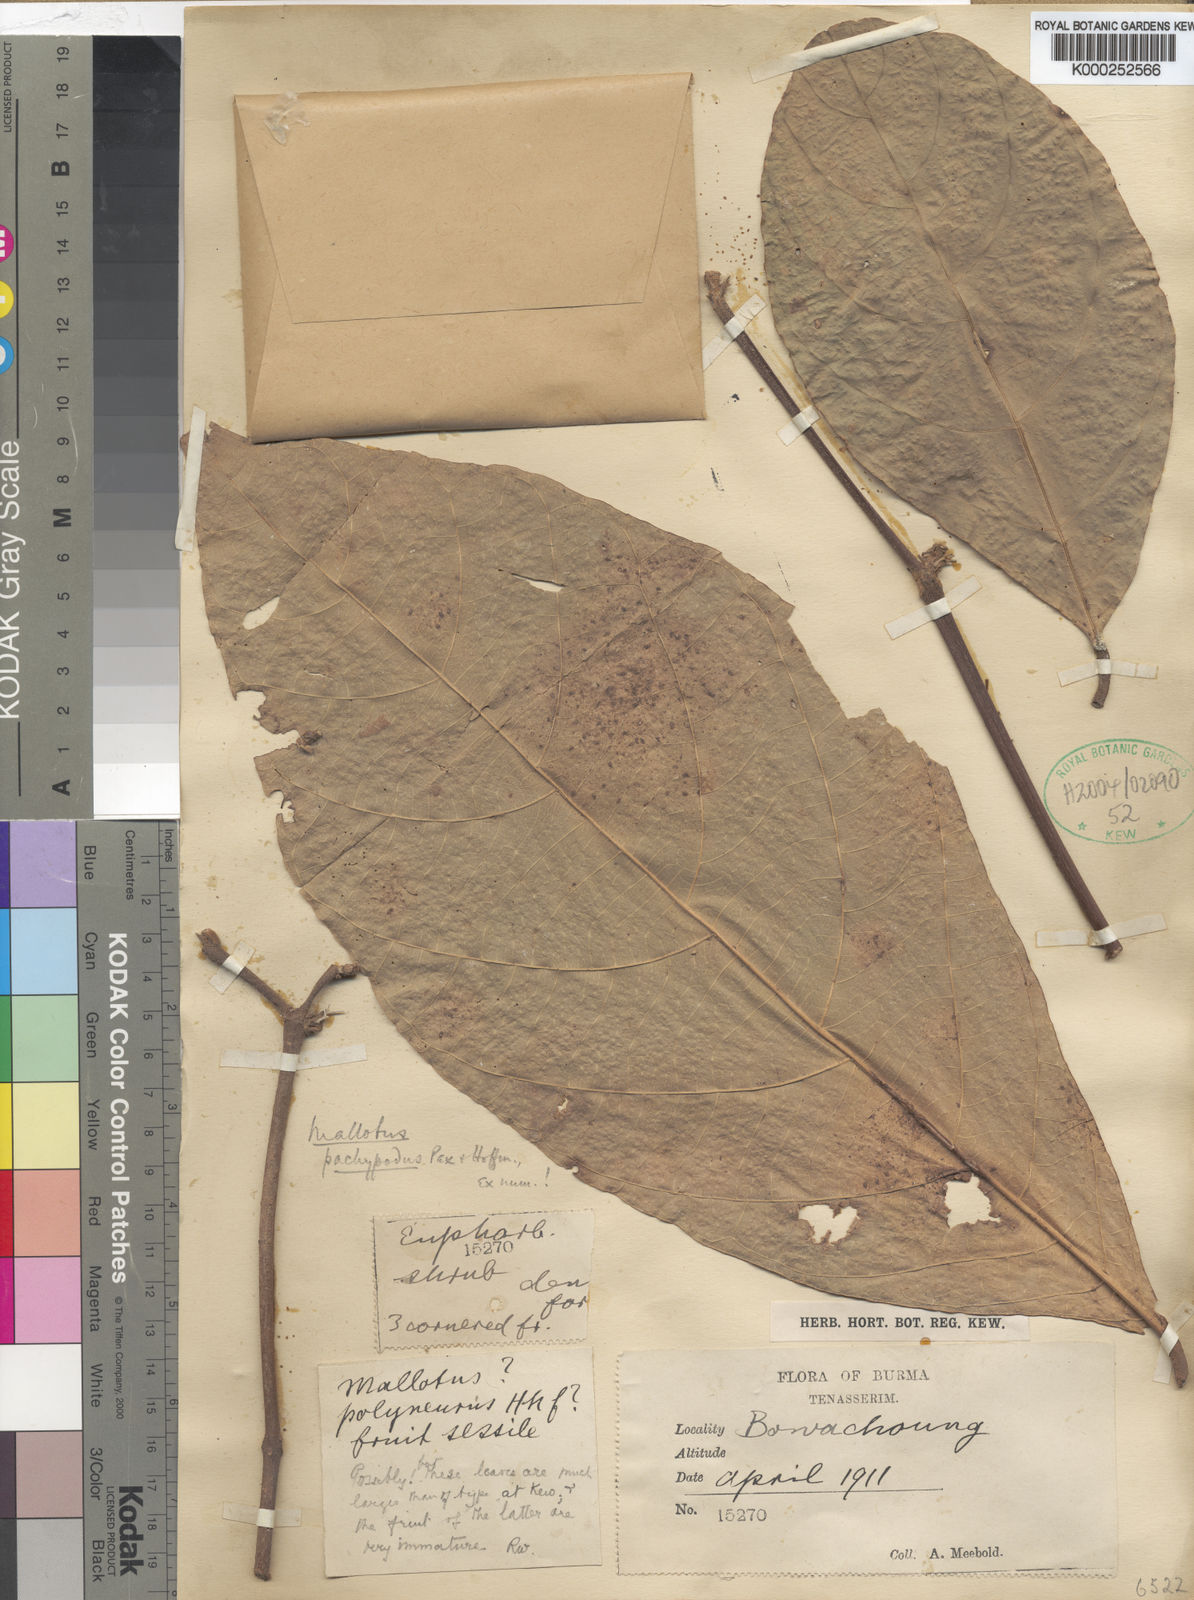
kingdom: Plantae
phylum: Tracheophyta
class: Magnoliopsida
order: Malpighiales
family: Euphorbiaceae
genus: Mallotus
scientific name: Mallotus pachypodus
